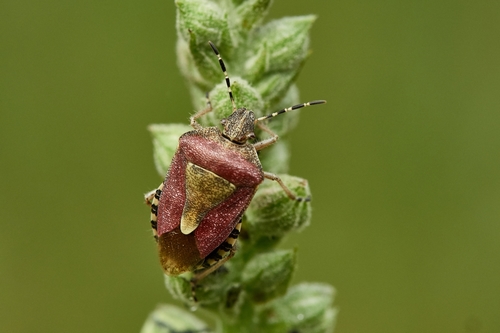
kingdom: Animalia
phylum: Arthropoda
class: Insecta
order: Hemiptera
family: Pentatomidae
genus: Dolycoris
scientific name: Dolycoris baccarum
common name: Sloe bug
